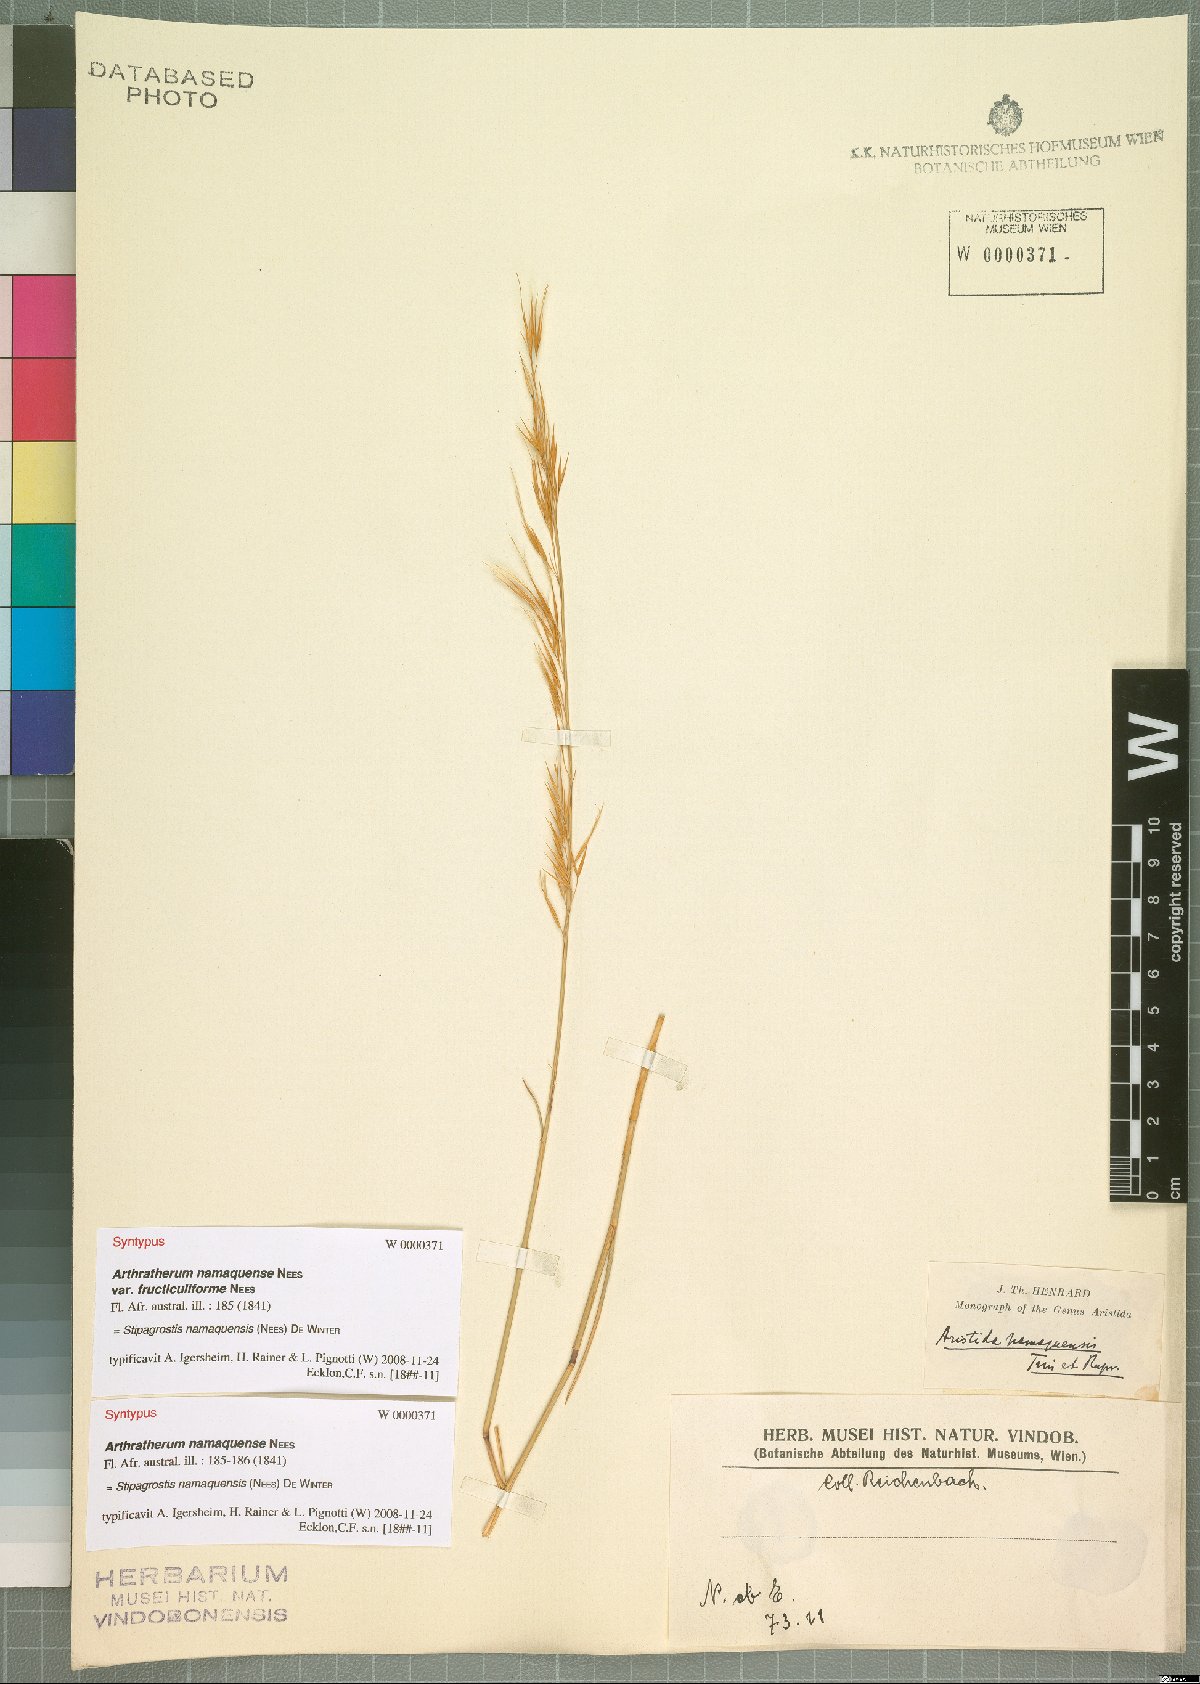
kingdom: Plantae
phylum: Tracheophyta
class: Liliopsida
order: Poales
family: Poaceae
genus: Stipagrostis
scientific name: Stipagrostis namaquensis
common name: River bushman grass
